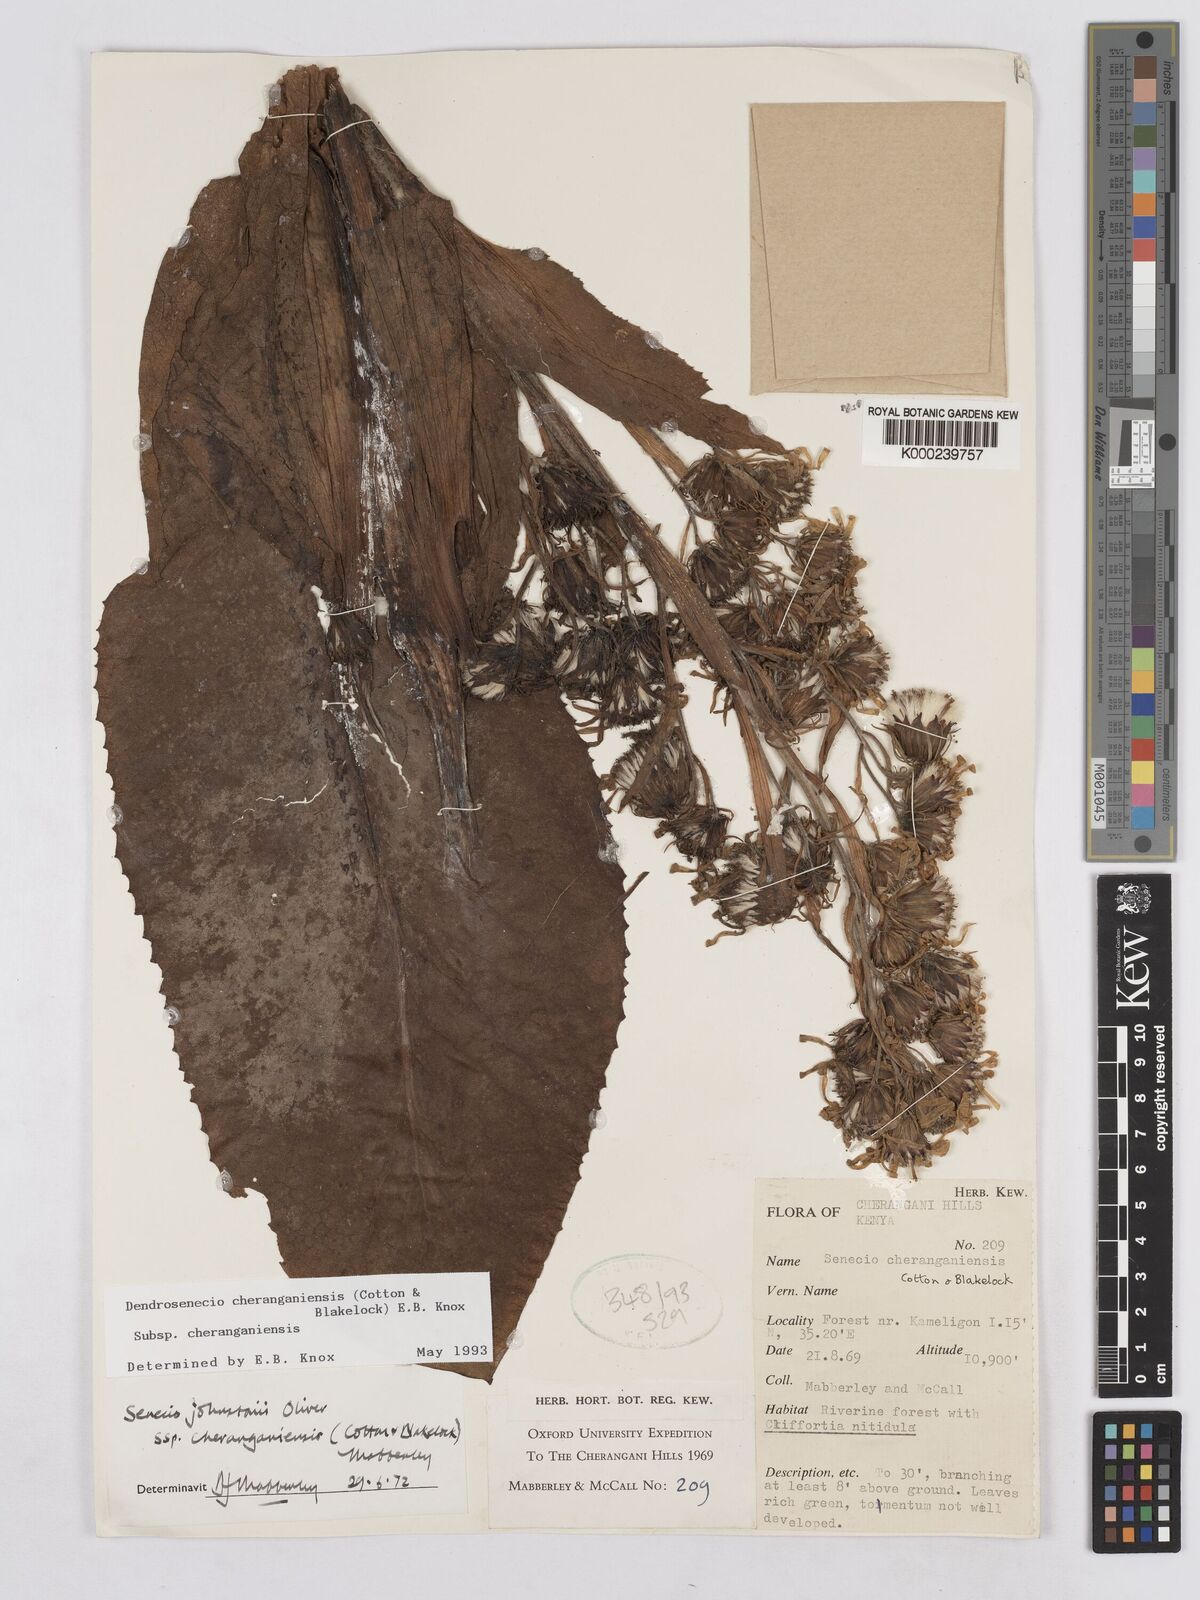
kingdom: Plantae
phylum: Tracheophyta
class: Magnoliopsida
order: Asterales
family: Asteraceae
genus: Dendrosenecio
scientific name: Dendrosenecio cheranganiensis
